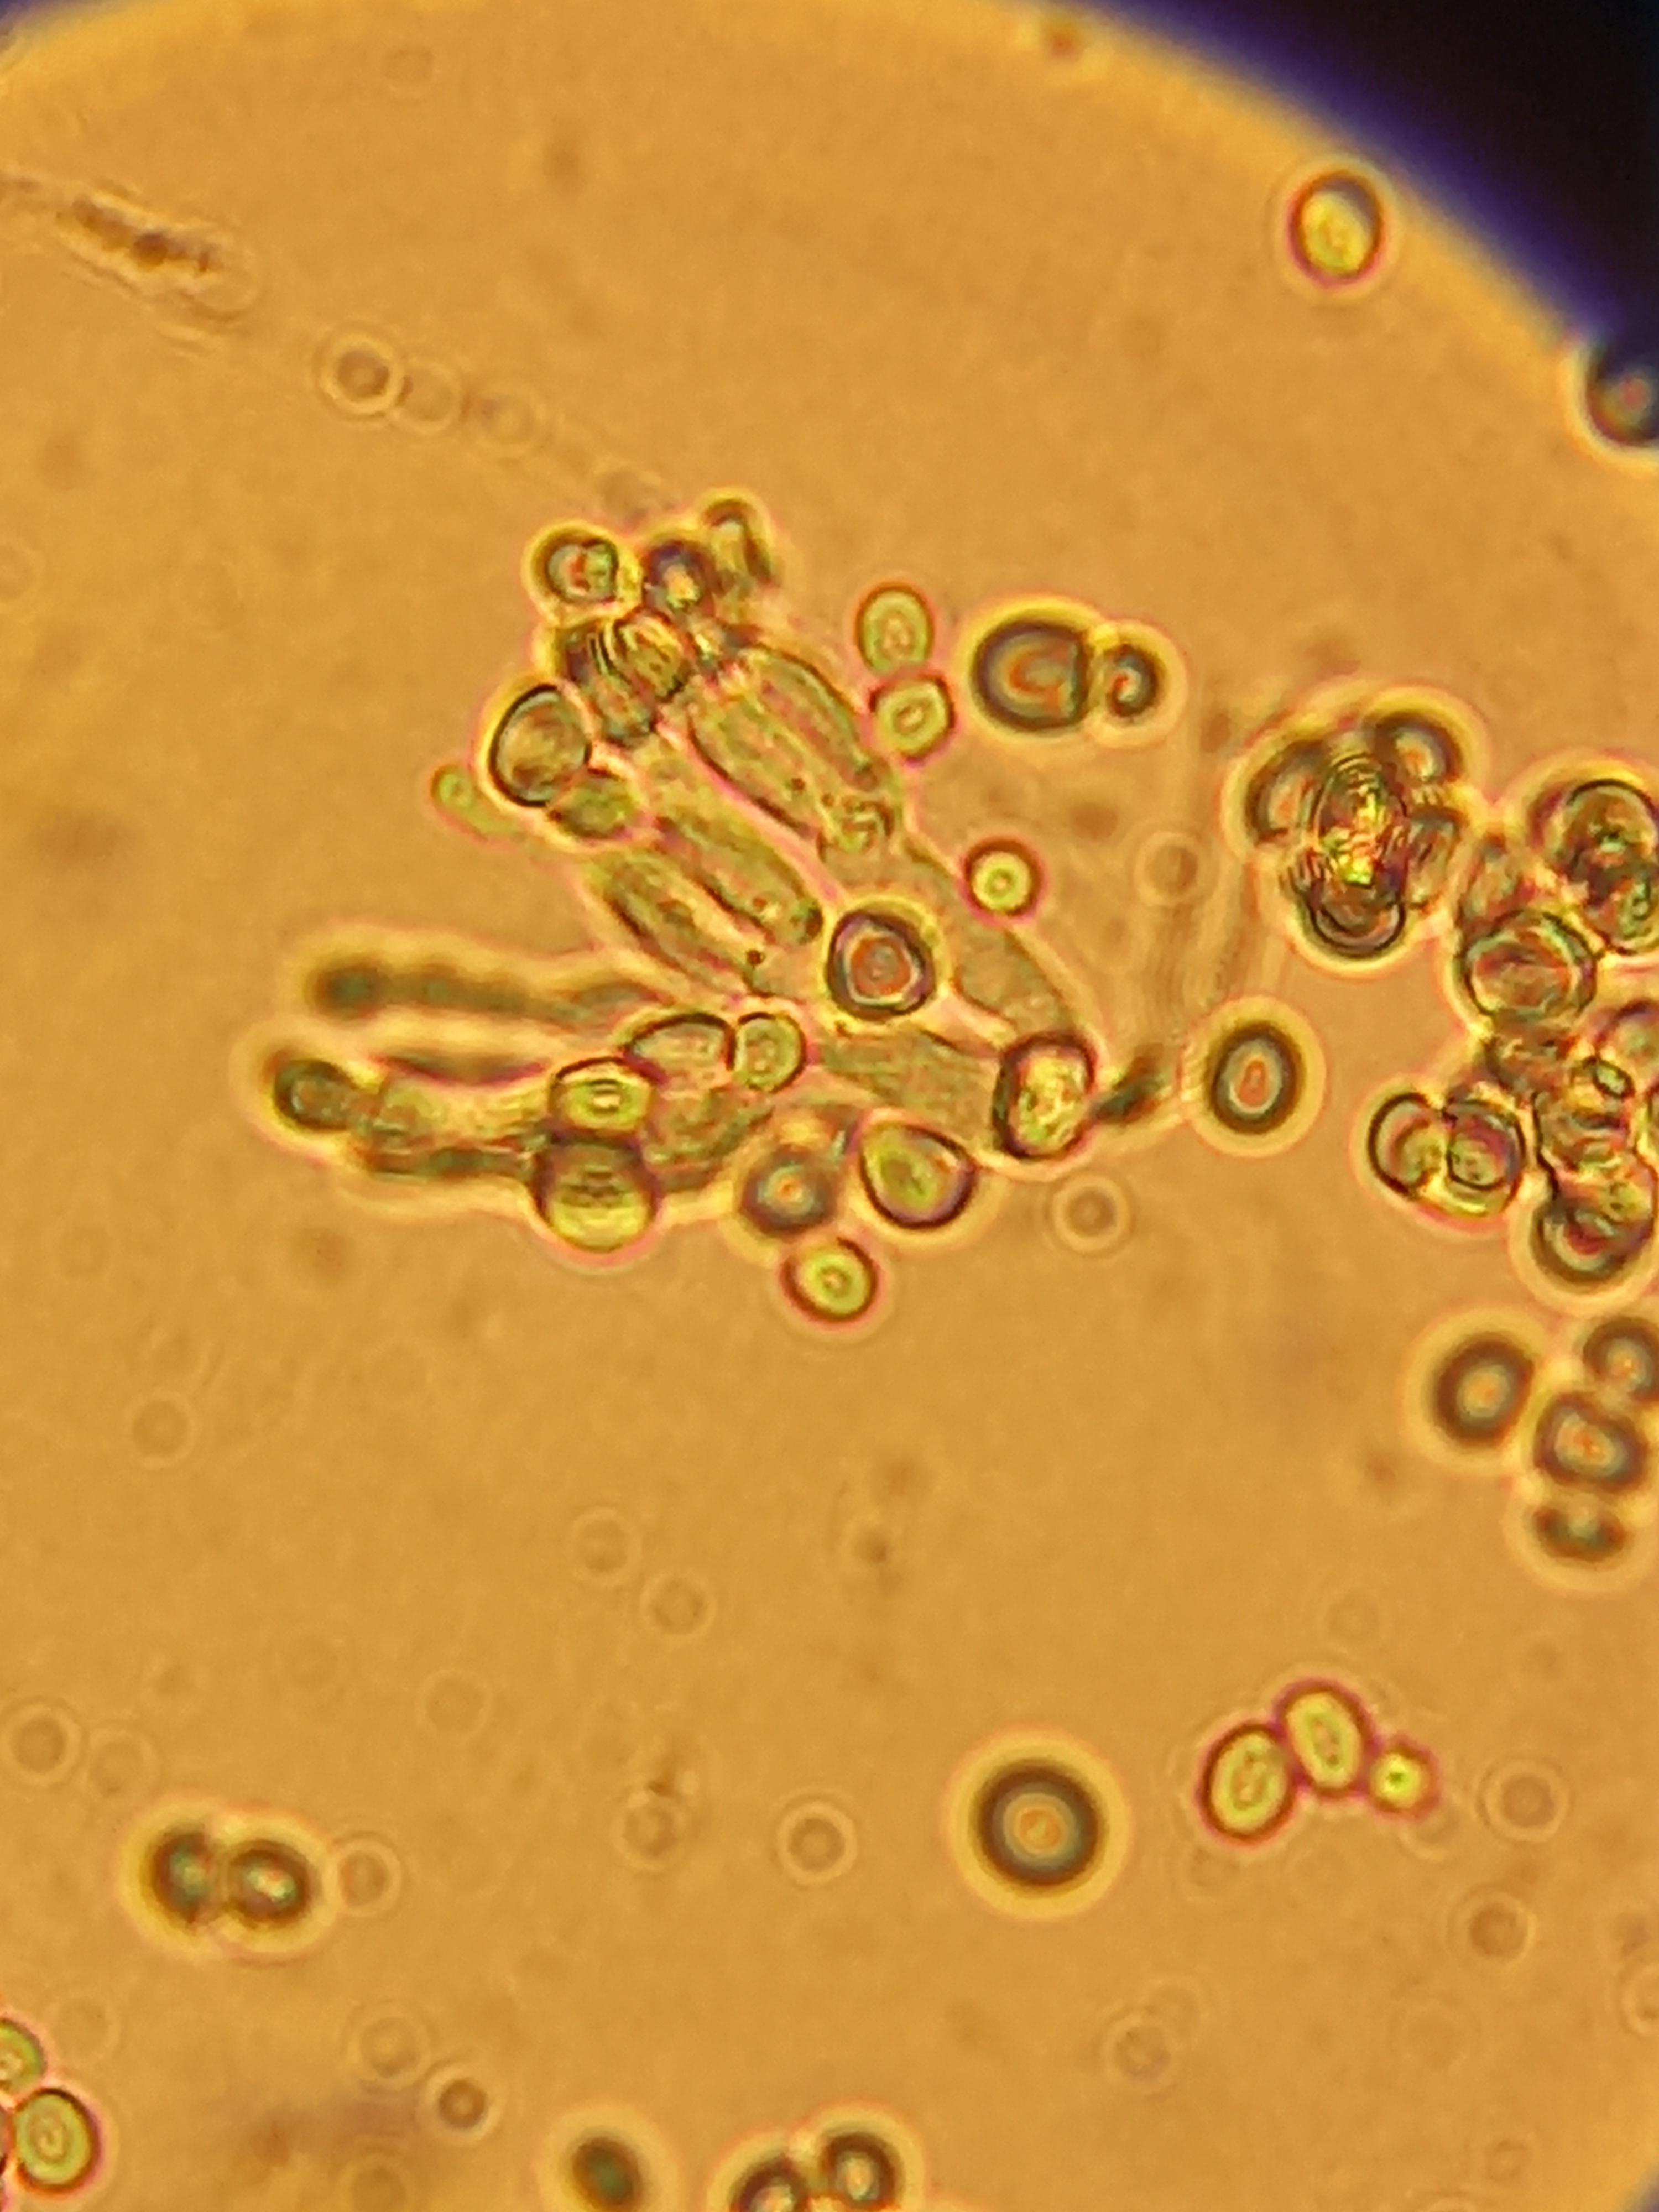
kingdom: Fungi
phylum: Ascomycota
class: Eurotiomycetes
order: Eurotiales
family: Aspergillaceae
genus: Penicillium
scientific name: Penicillium italicum
